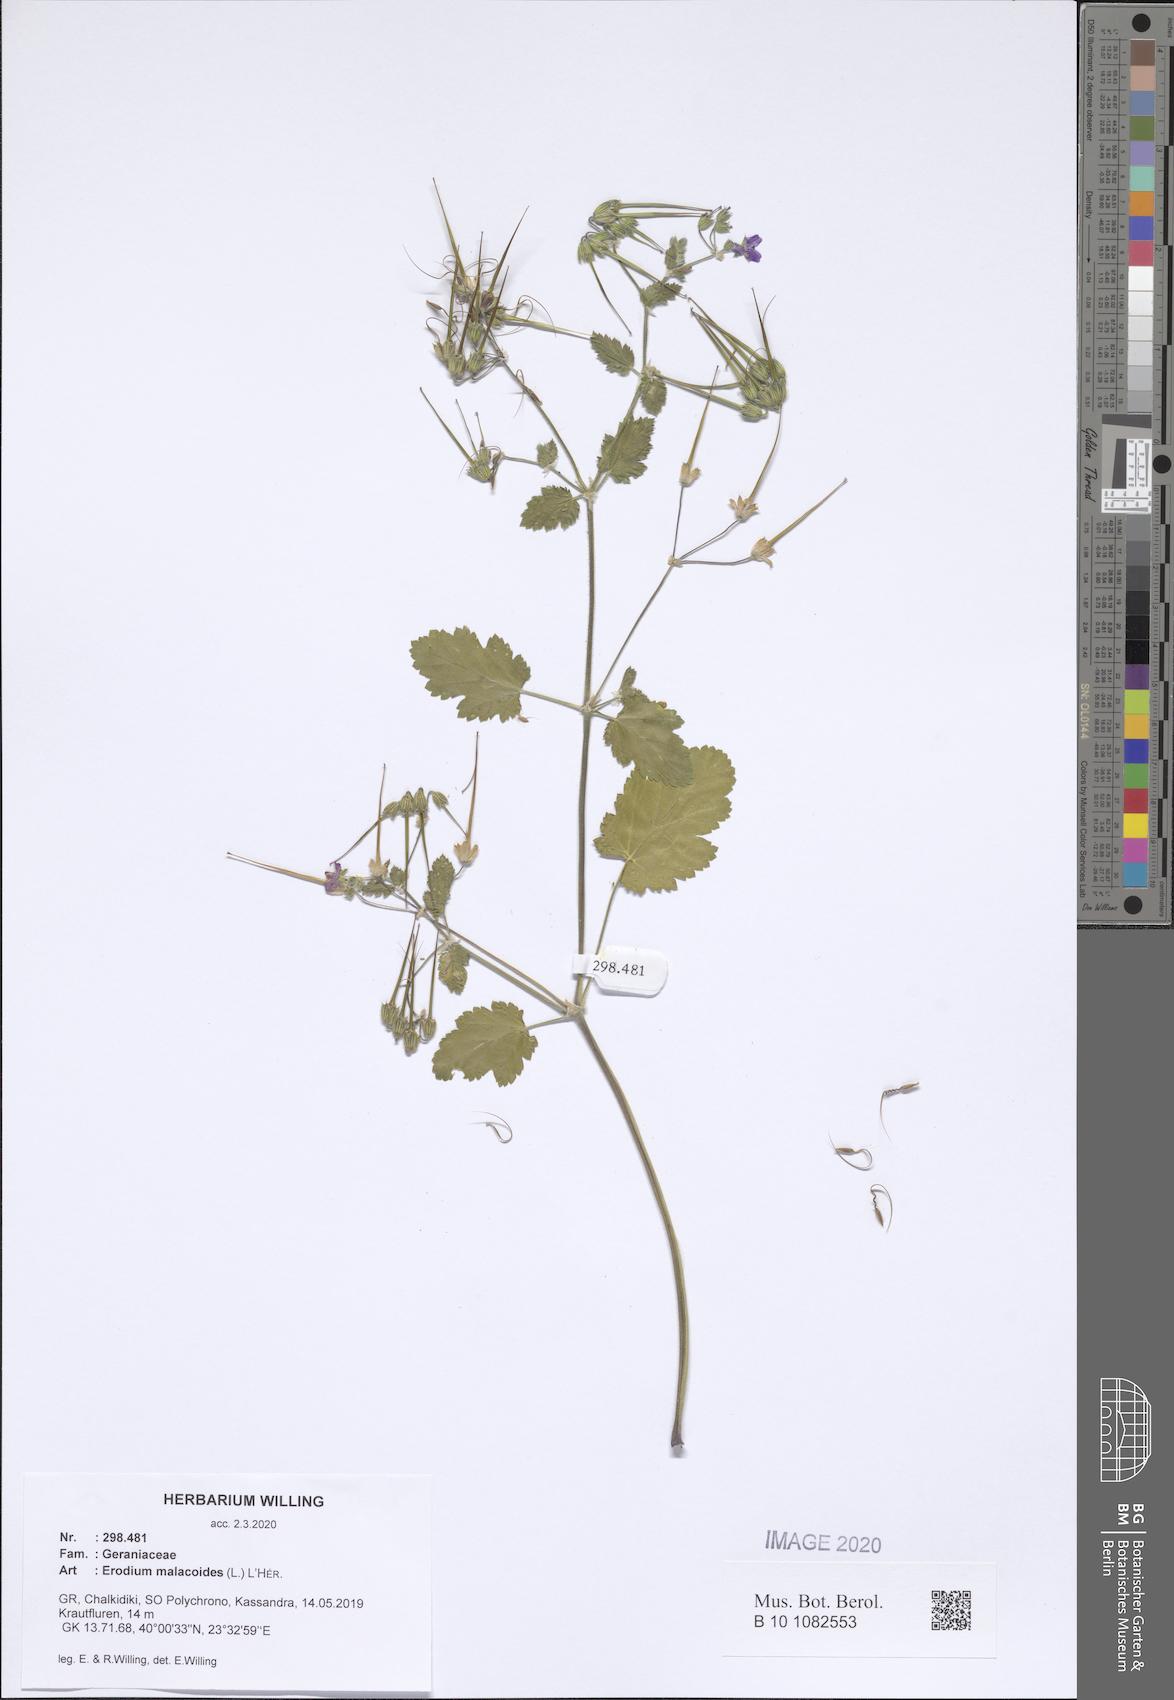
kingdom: Plantae
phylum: Tracheophyta
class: Magnoliopsida
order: Geraniales
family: Geraniaceae
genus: Erodium
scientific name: Erodium malacoides
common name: Soft stork's-bill
